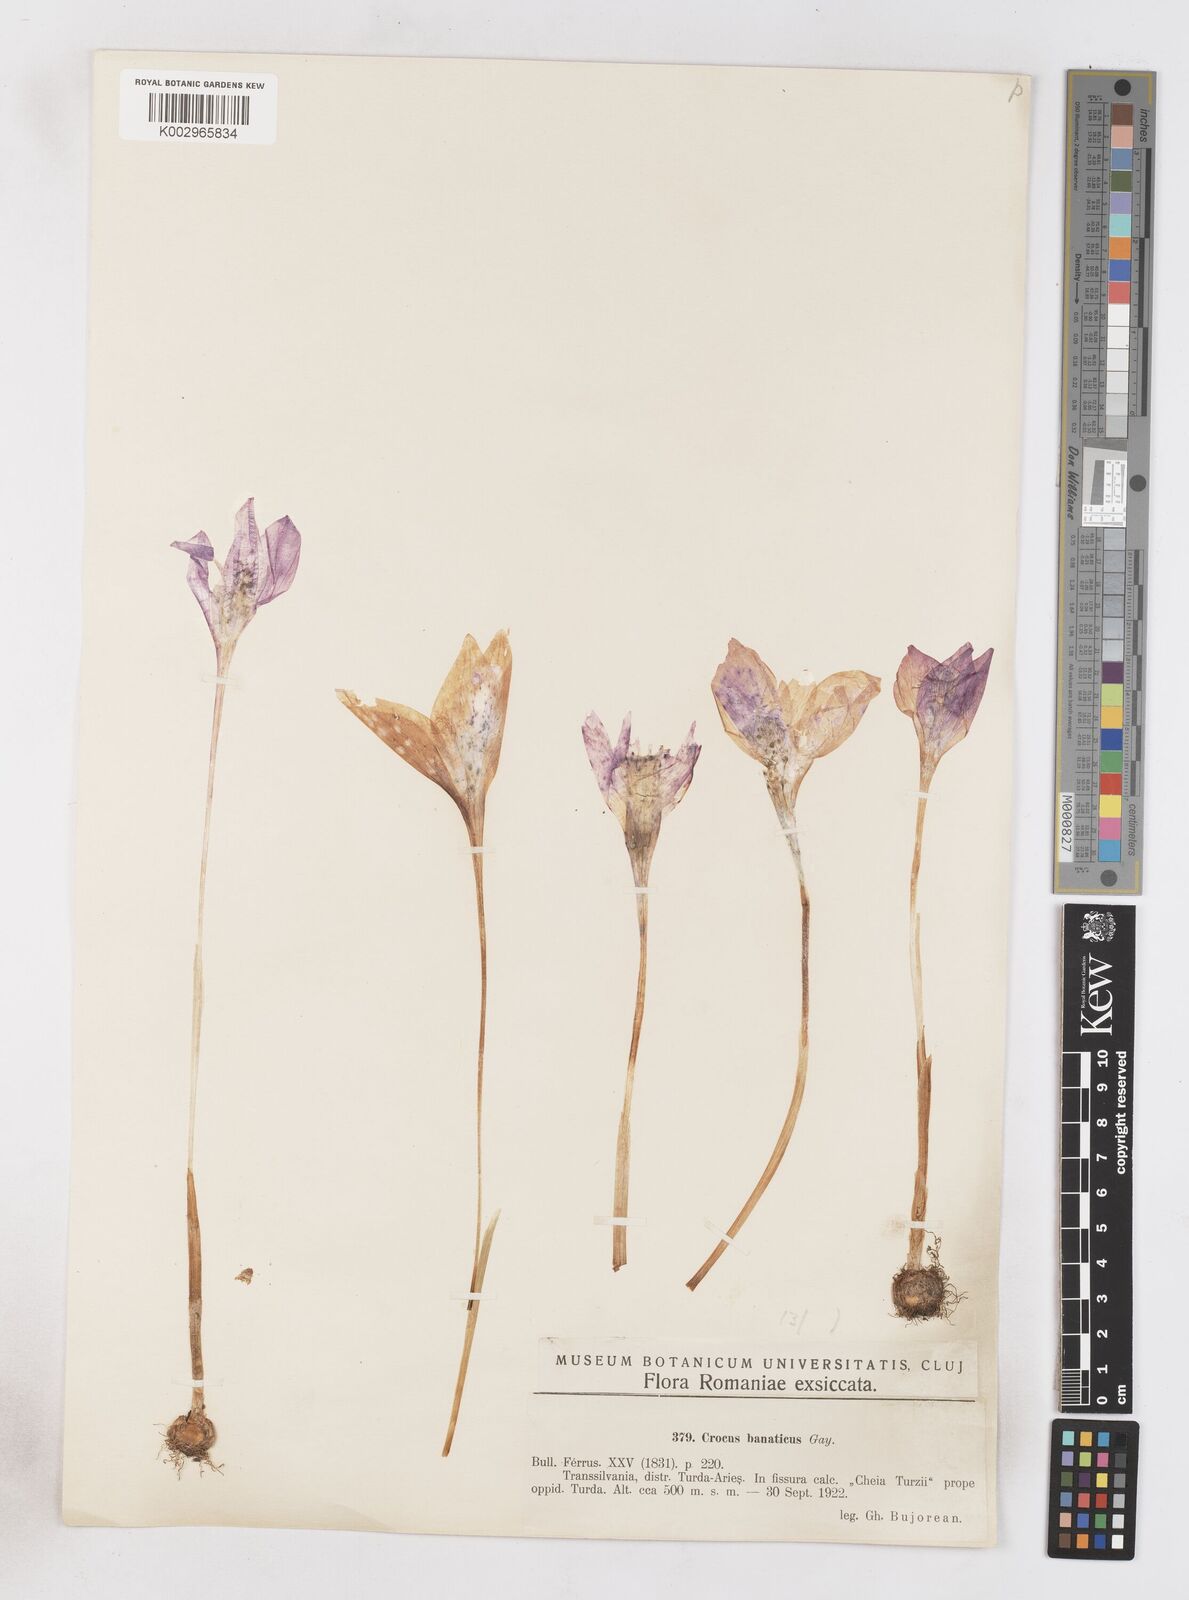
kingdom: Plantae
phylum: Tracheophyta
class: Liliopsida
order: Asparagales
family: Iridaceae
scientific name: Iridaceae
